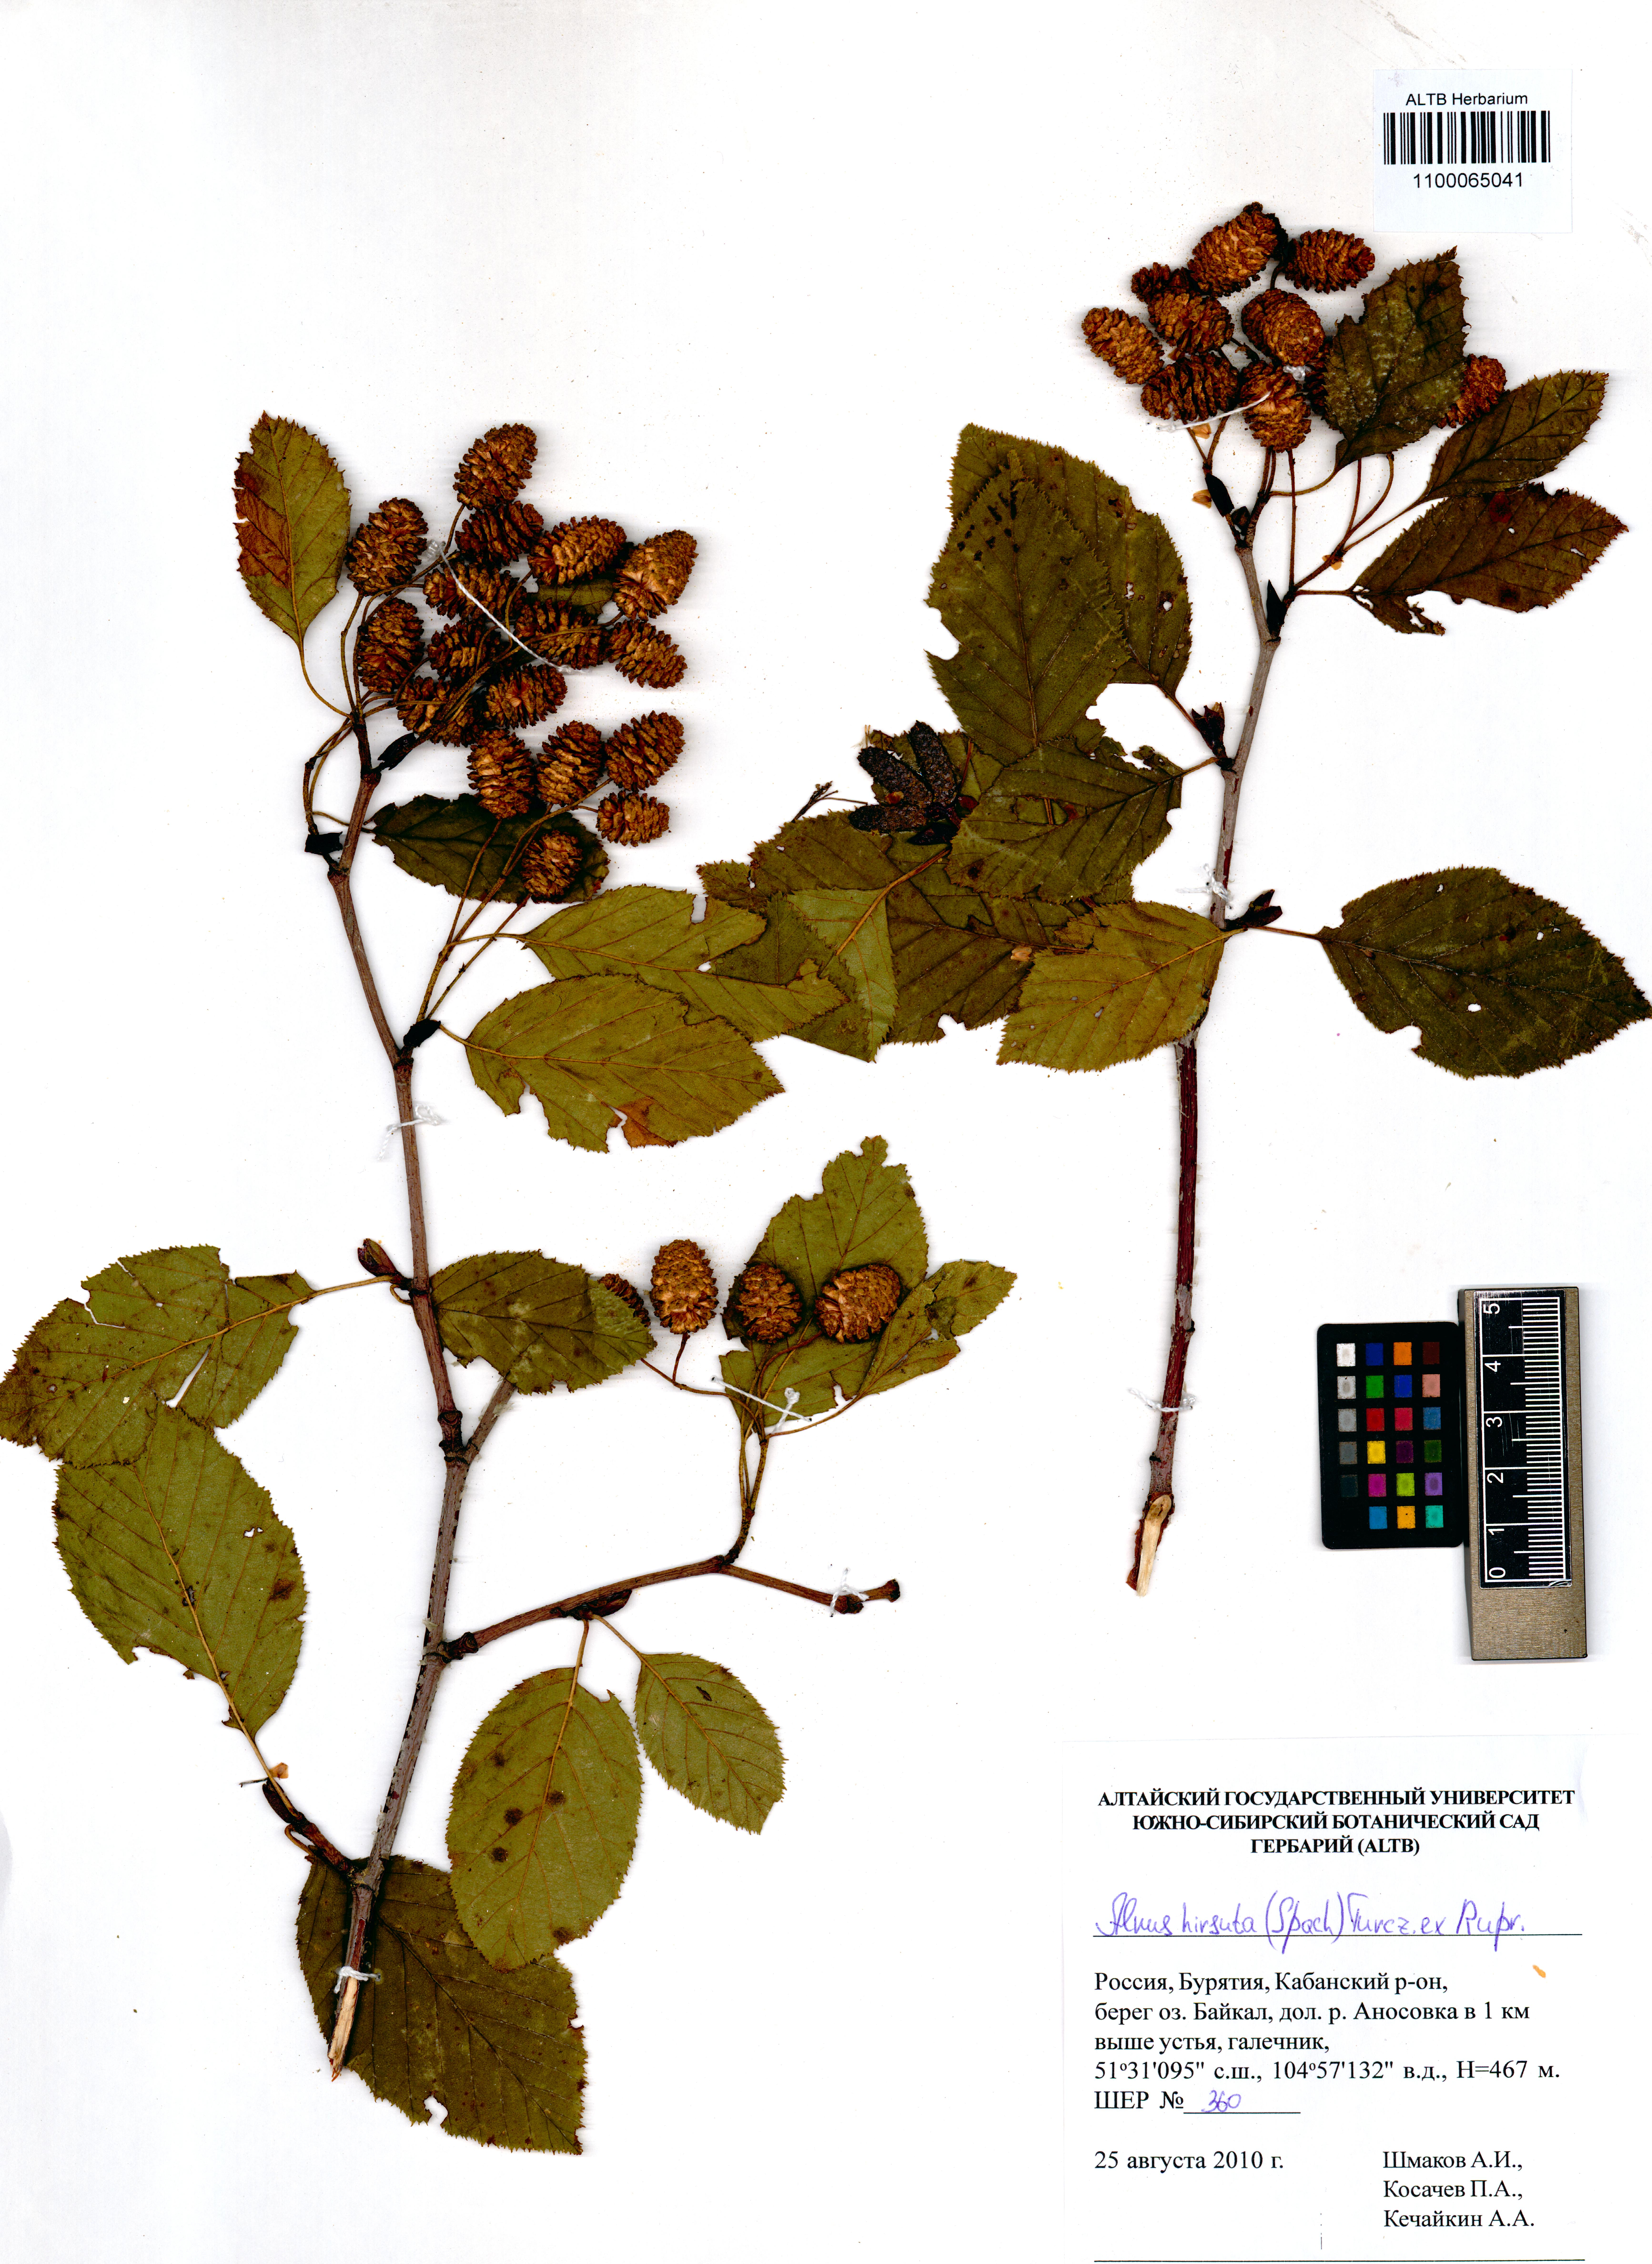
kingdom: Plantae
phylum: Tracheophyta
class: Magnoliopsida
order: Fagales
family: Betulaceae
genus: Alnus
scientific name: Alnus hirsuta
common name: Manchurian alder
